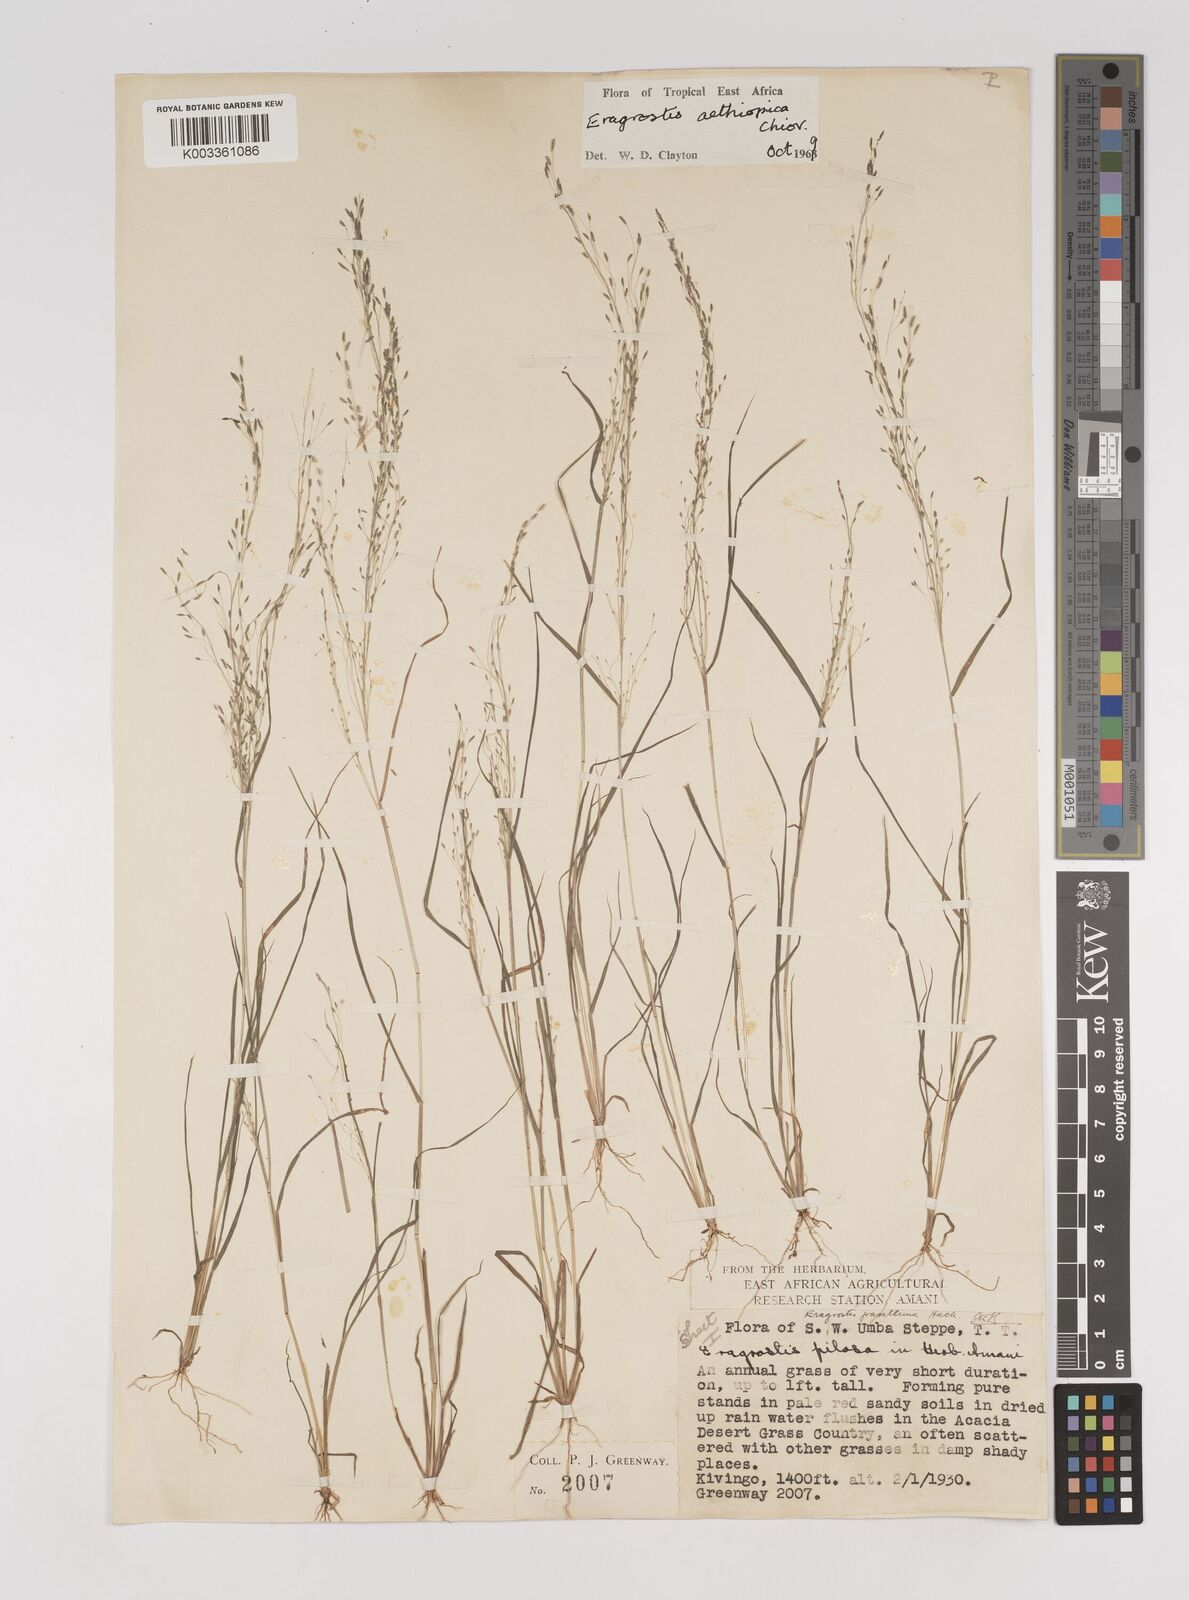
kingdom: Plantae
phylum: Tracheophyta
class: Liliopsida
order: Poales
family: Poaceae
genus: Eragrostis
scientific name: Eragrostis aethiopica
